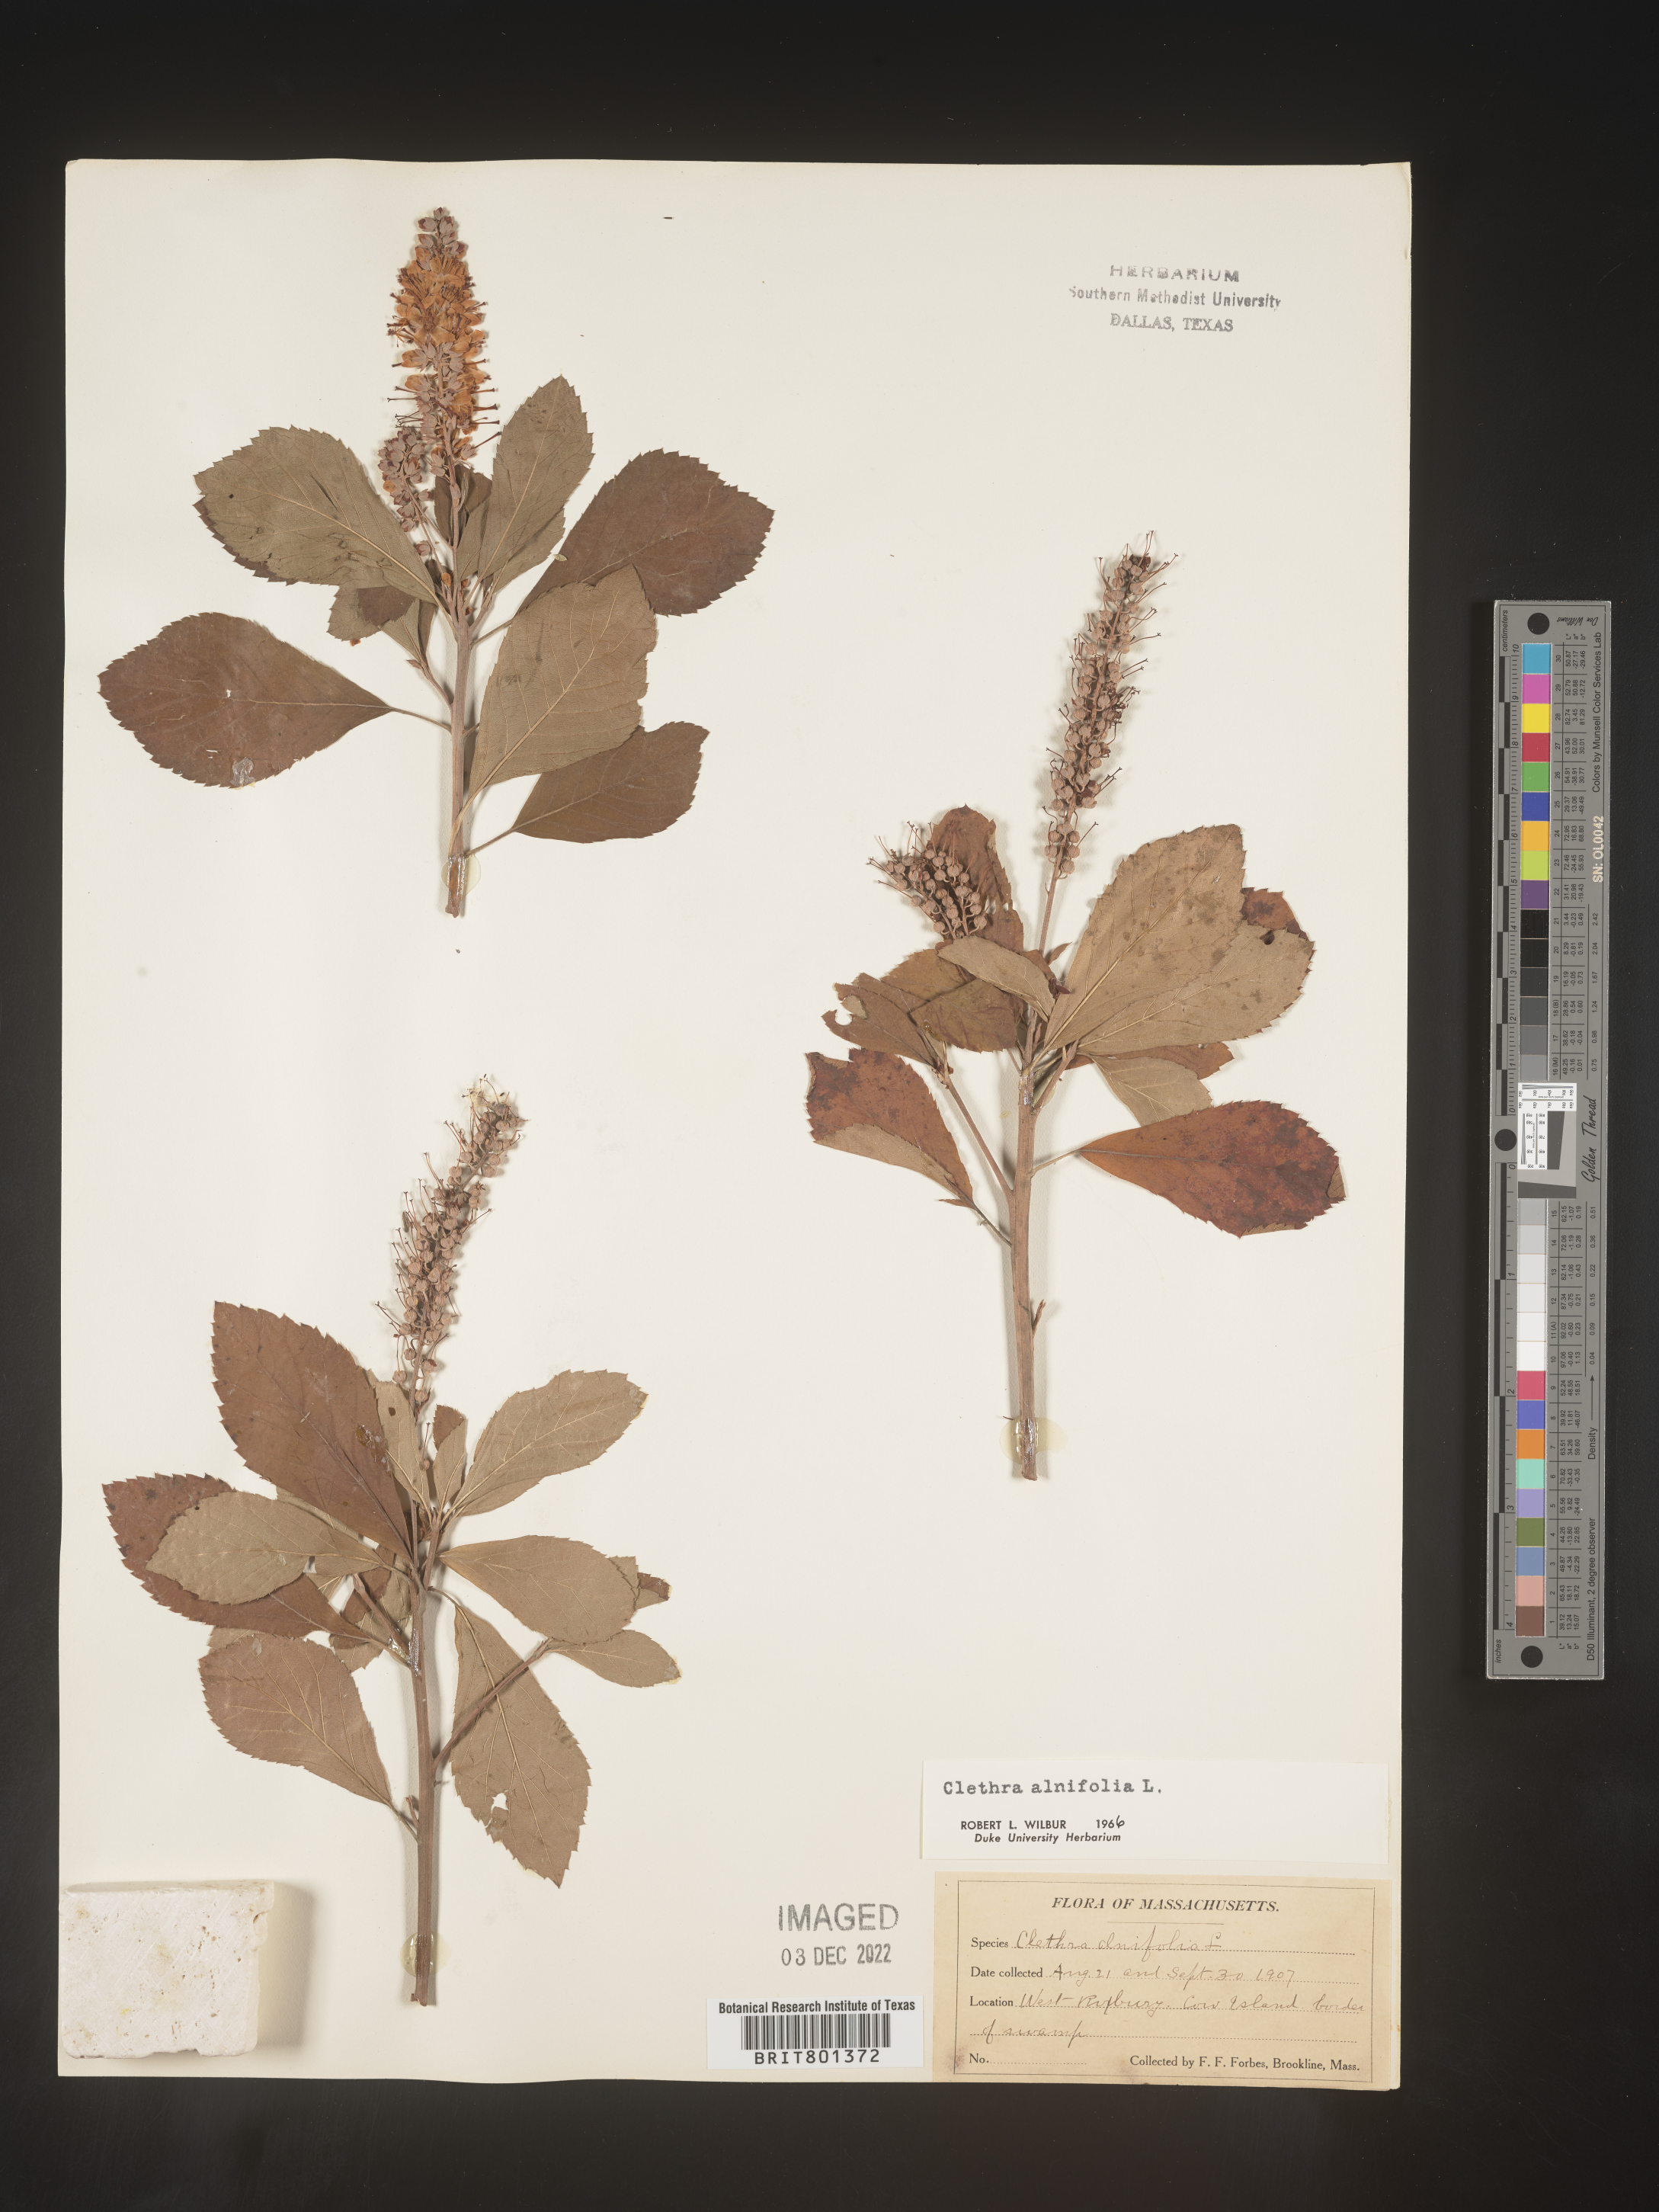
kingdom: Plantae
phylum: Tracheophyta
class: Magnoliopsida
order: Ericales
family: Clethraceae
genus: Clethra
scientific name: Clethra alnifolia
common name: Sweet pepperbush
